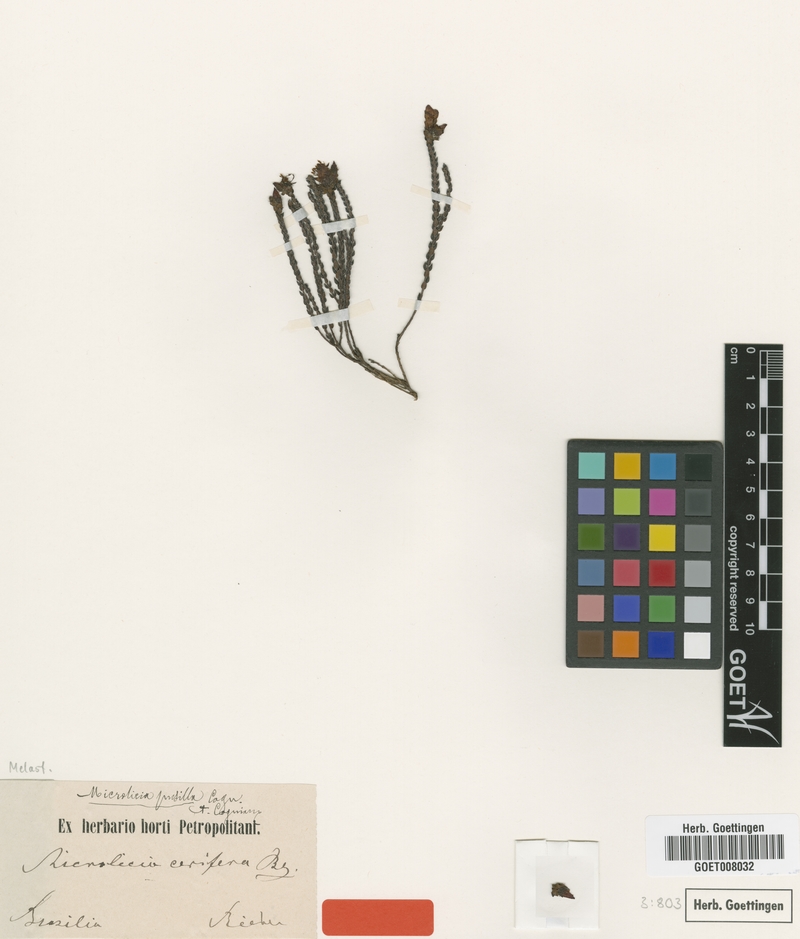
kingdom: Plantae
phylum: Tracheophyta
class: Magnoliopsida
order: Myrtales
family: Melastomataceae
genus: Microlicia
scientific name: Microlicia pusilla
